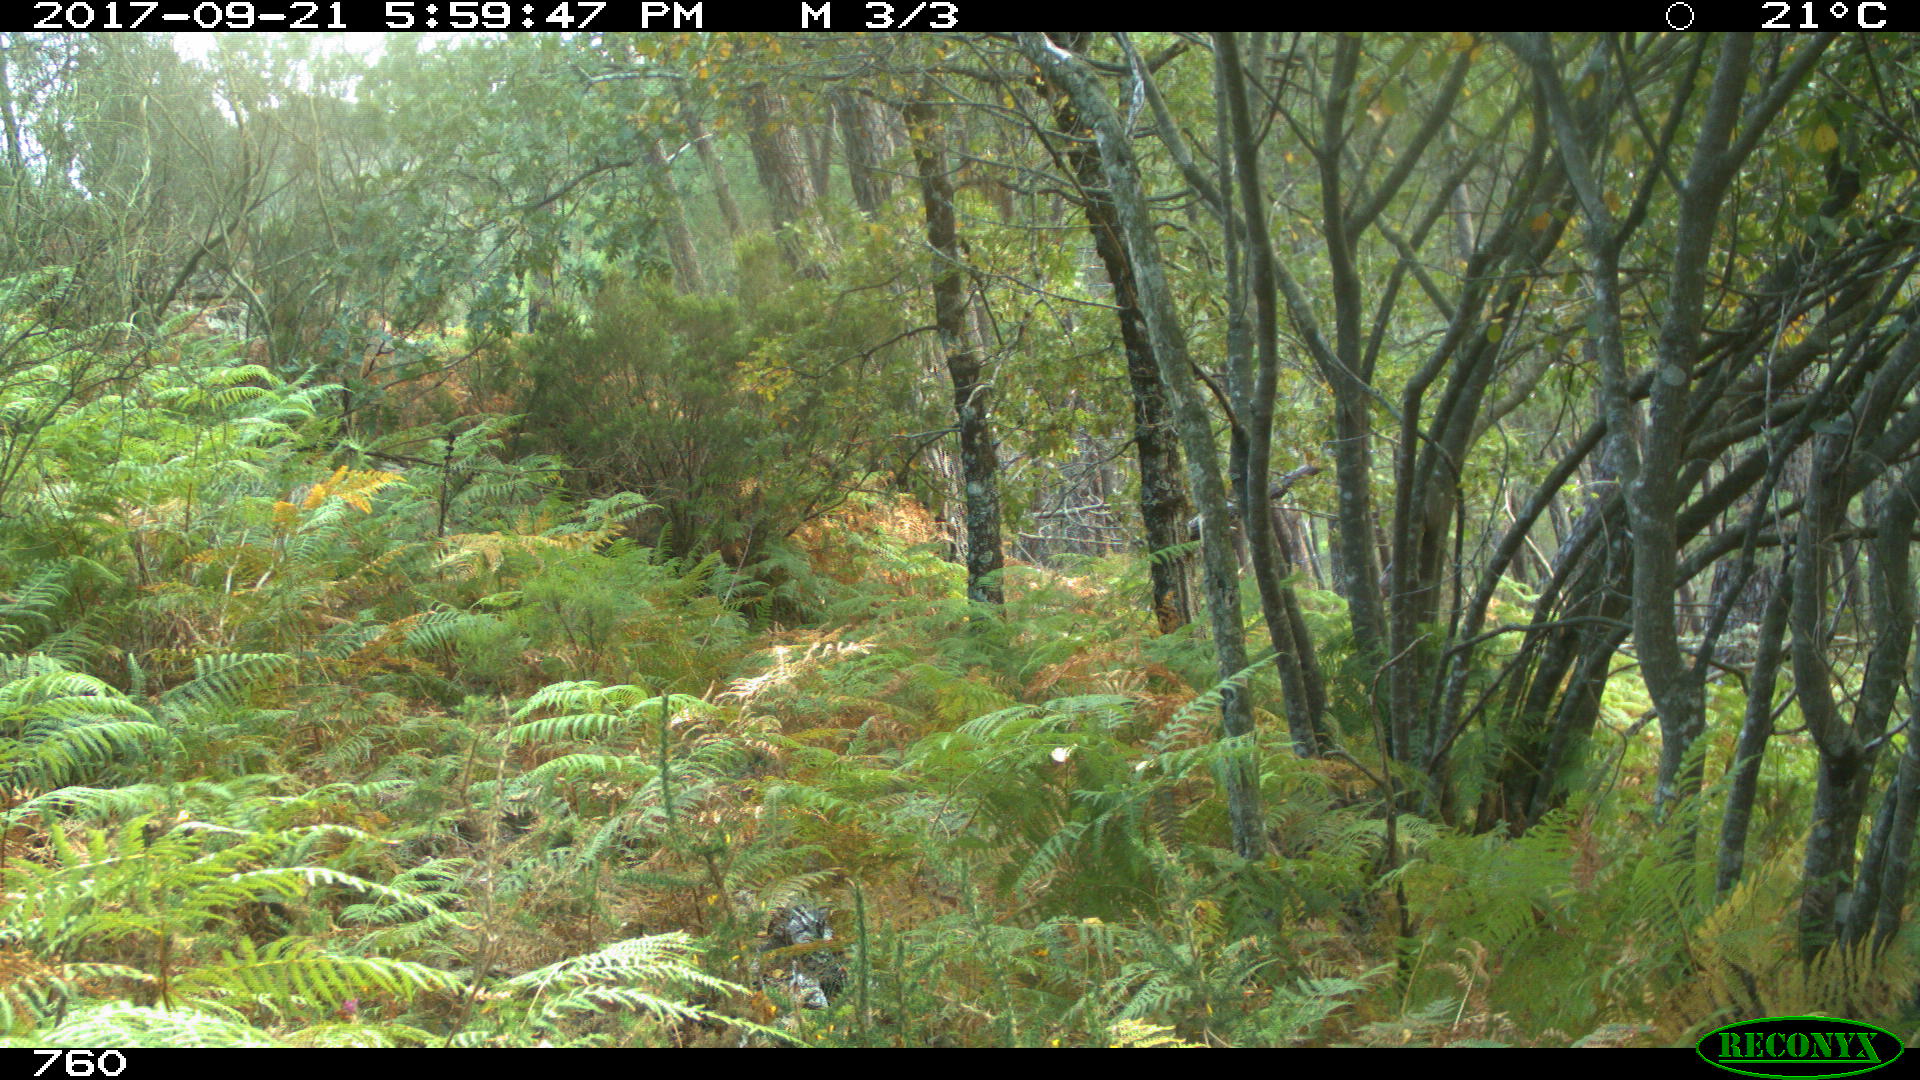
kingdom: Animalia
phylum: Chordata
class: Mammalia
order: Artiodactyla
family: Bovidae
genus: Bos
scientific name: Bos taurus
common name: Domesticated cattle
